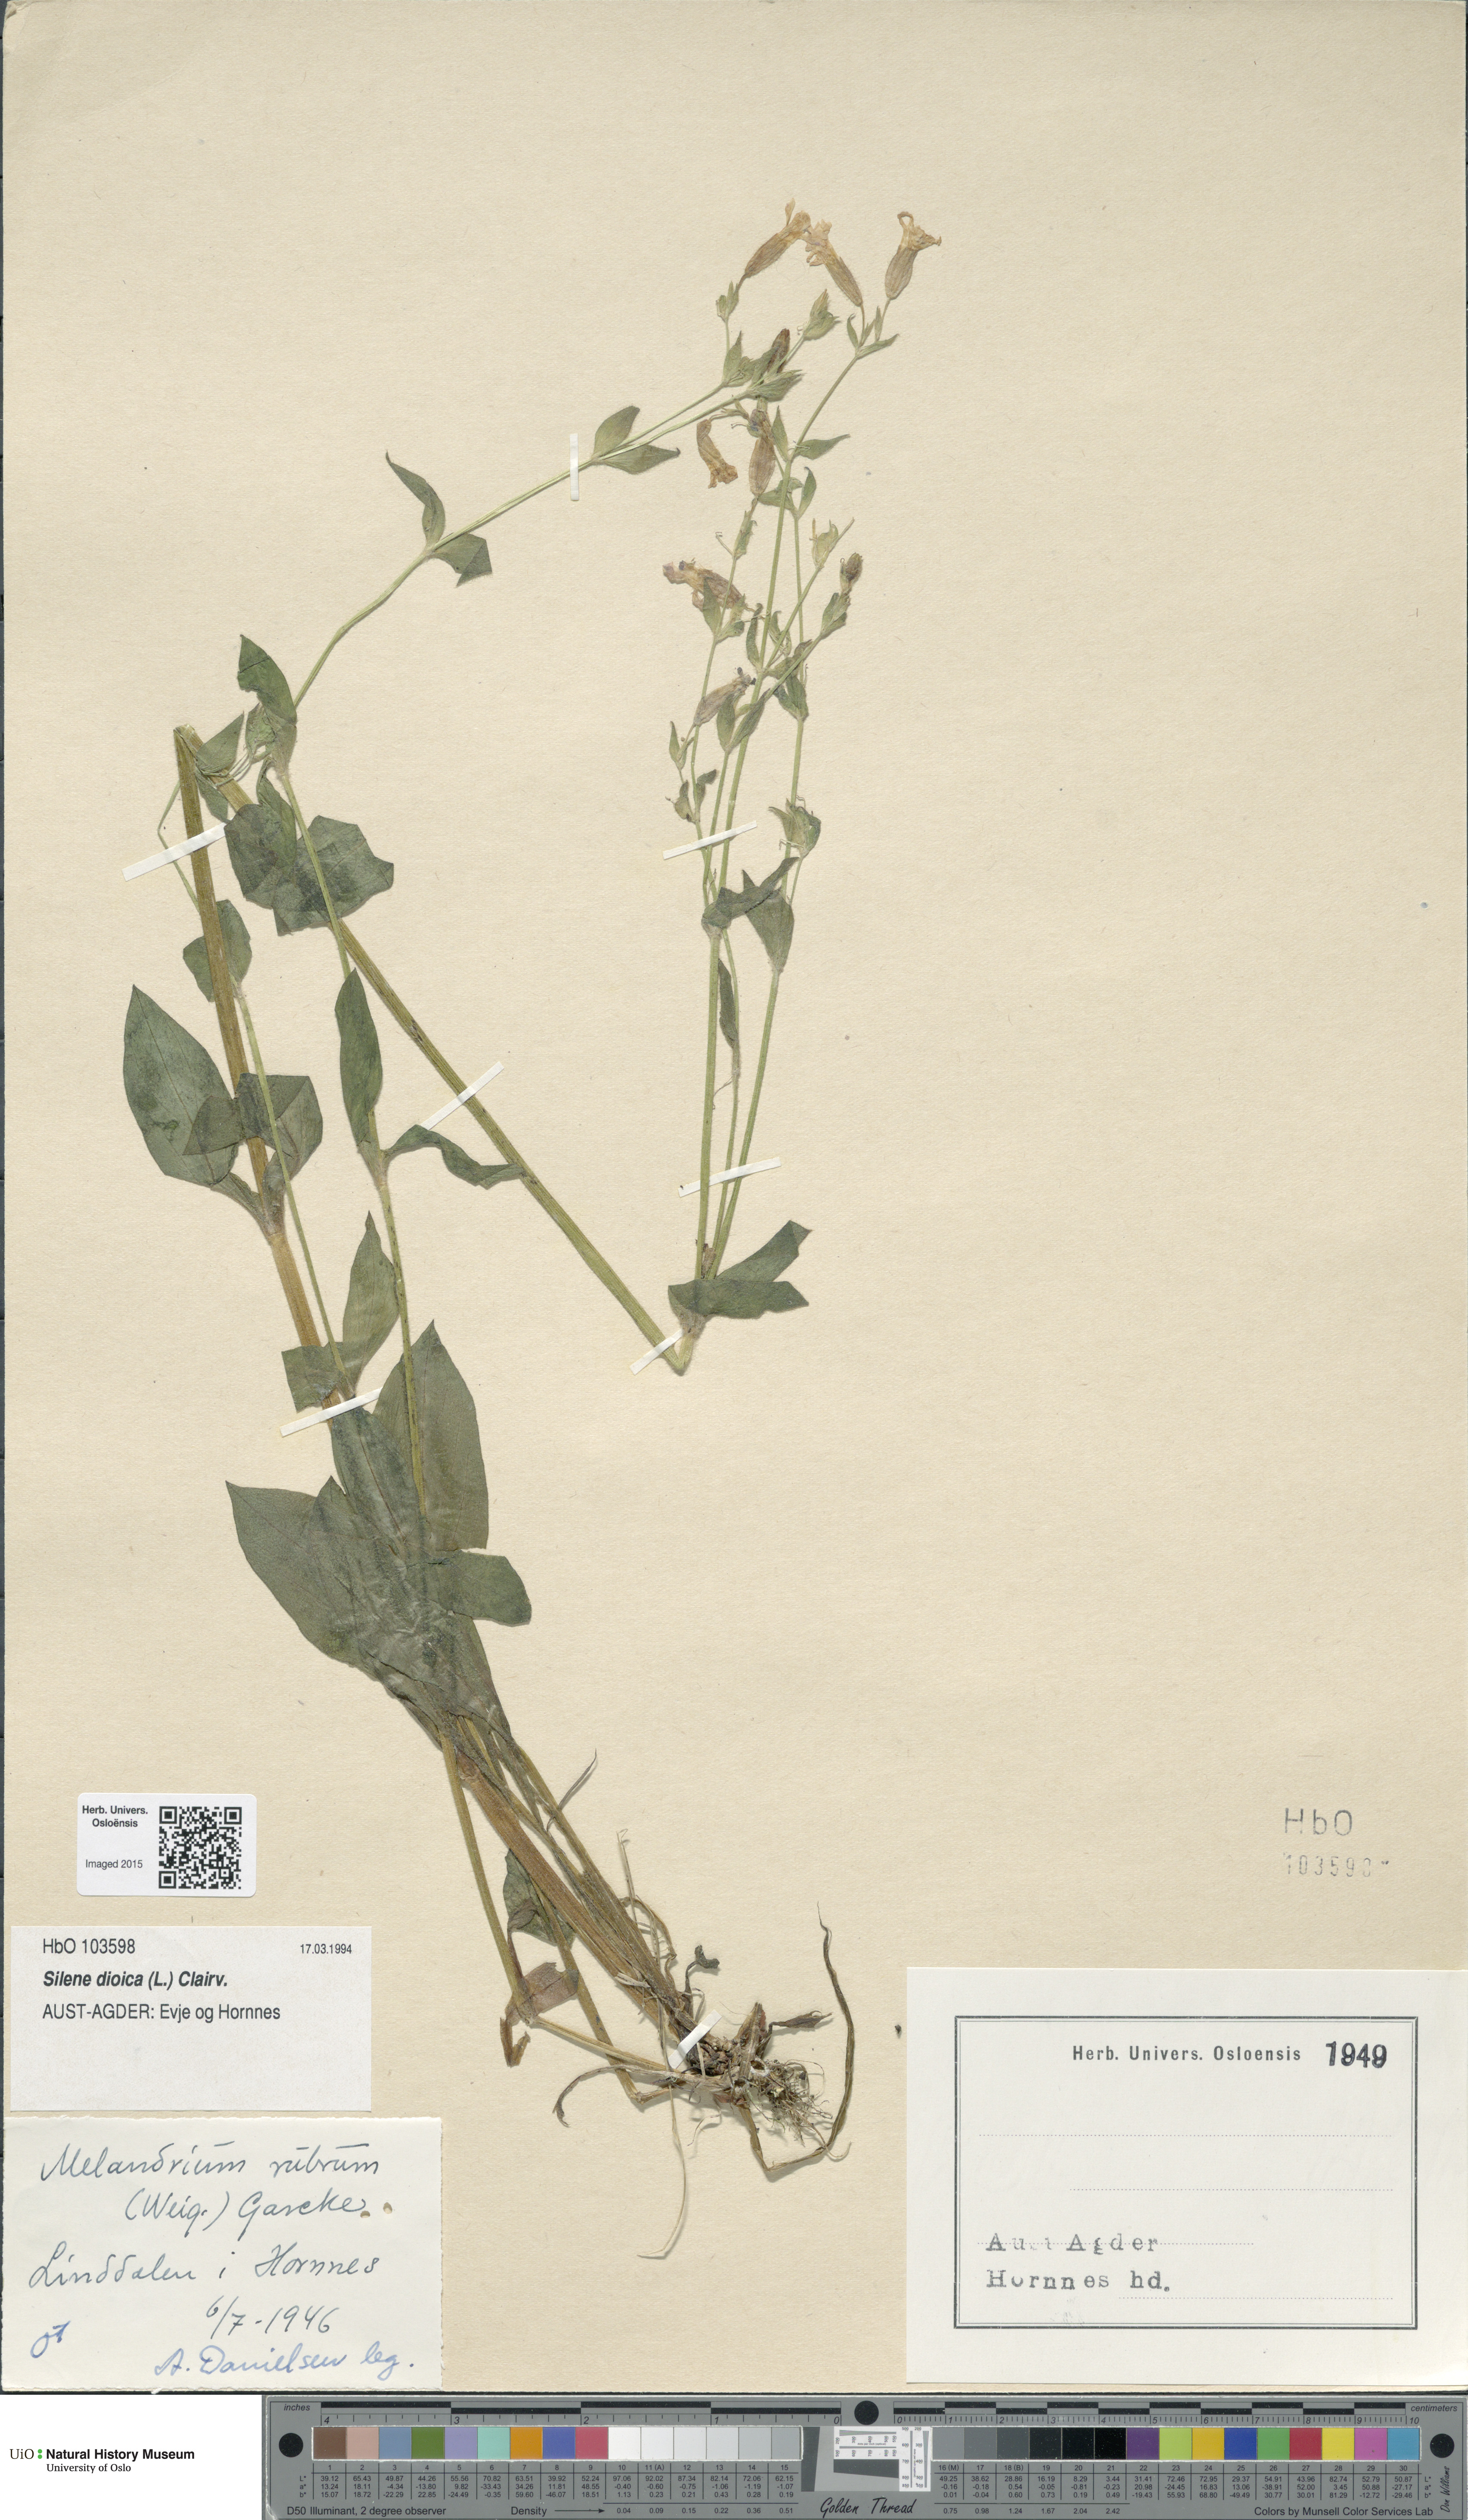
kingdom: Plantae
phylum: Tracheophyta
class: Magnoliopsida
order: Caryophyllales
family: Caryophyllaceae
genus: Silene
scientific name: Silene dioica
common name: Red campion
